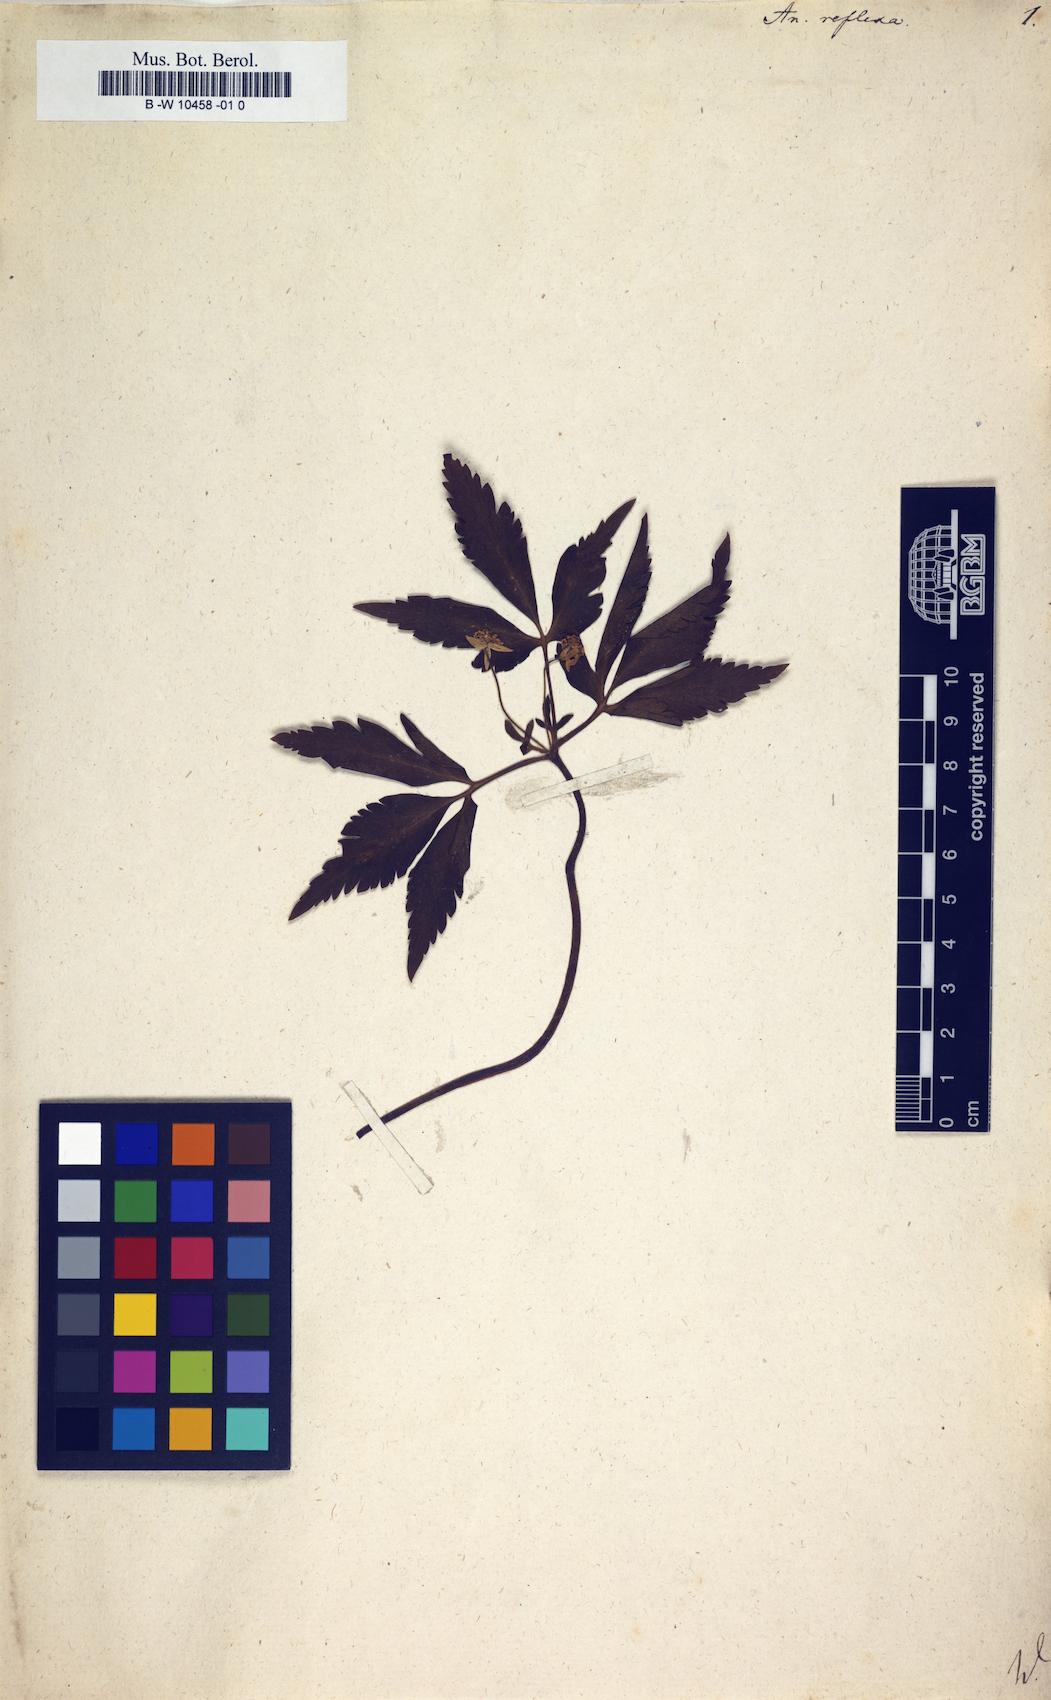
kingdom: Plantae
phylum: Tracheophyta
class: Magnoliopsida
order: Ranunculales
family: Ranunculaceae
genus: Anemone
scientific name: Anemone reflexa
